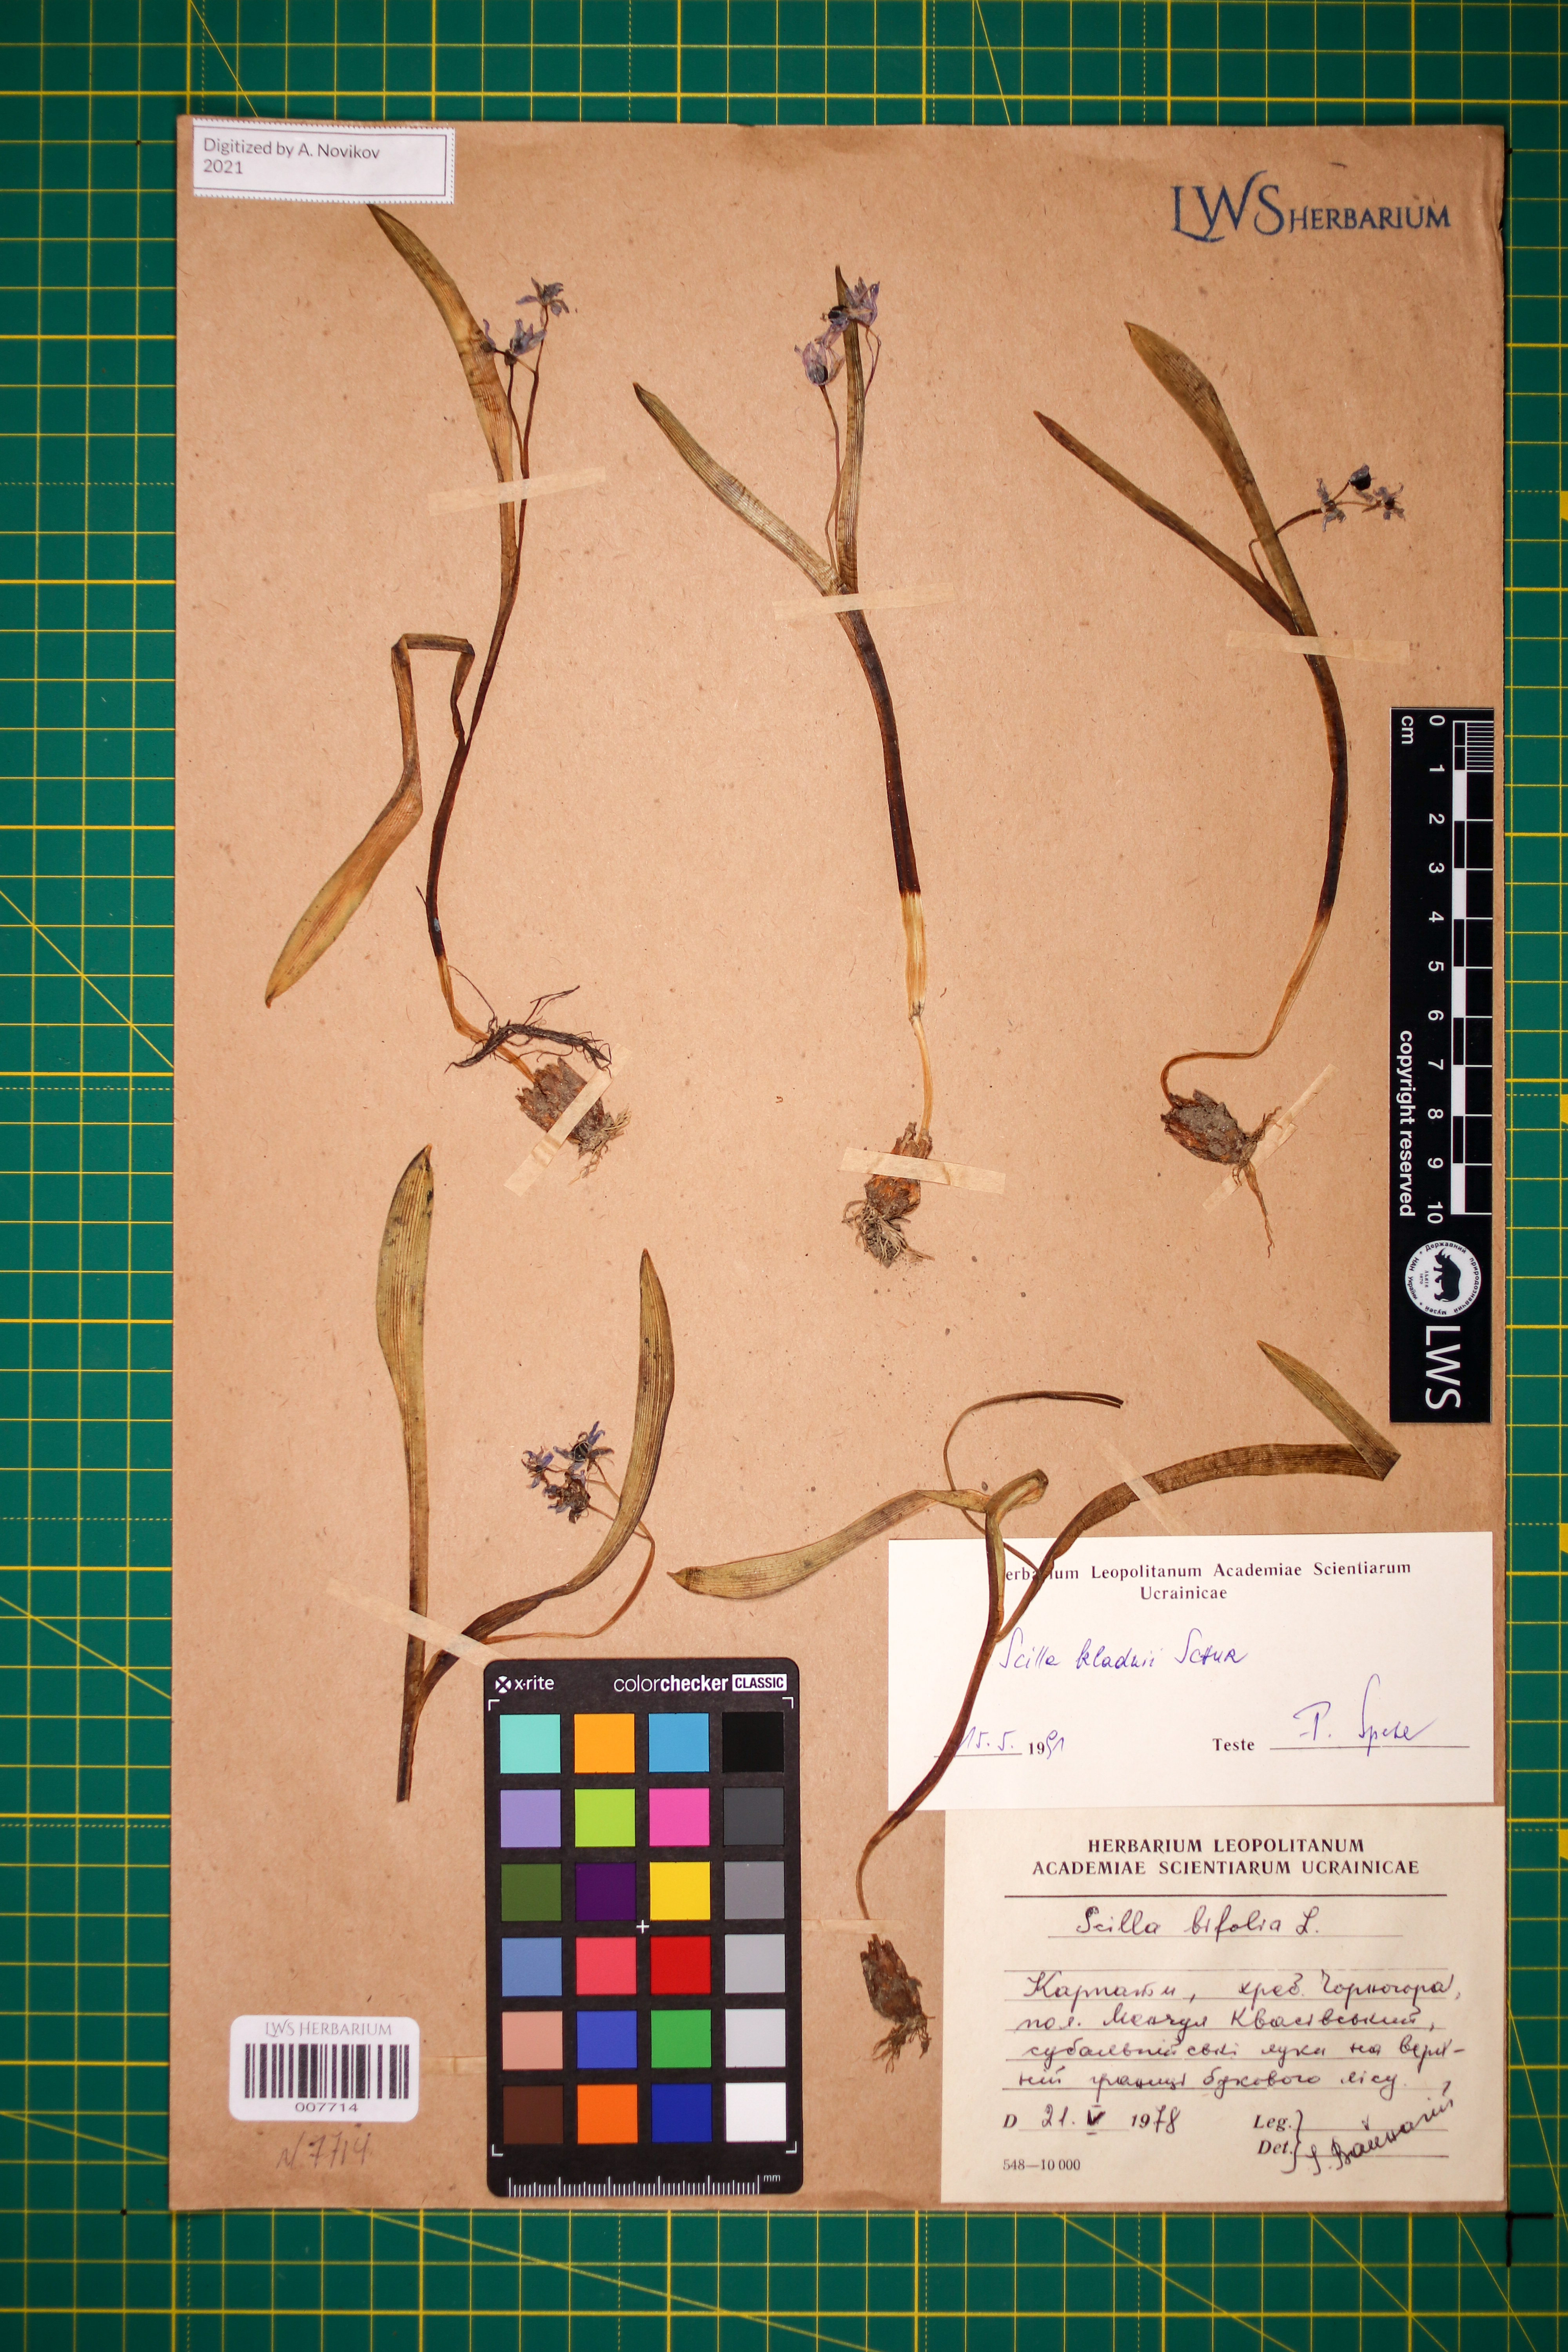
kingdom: Plantae
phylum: Tracheophyta
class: Liliopsida
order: Asparagales
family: Asparagaceae
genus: Scilla
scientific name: Scilla kladnii
